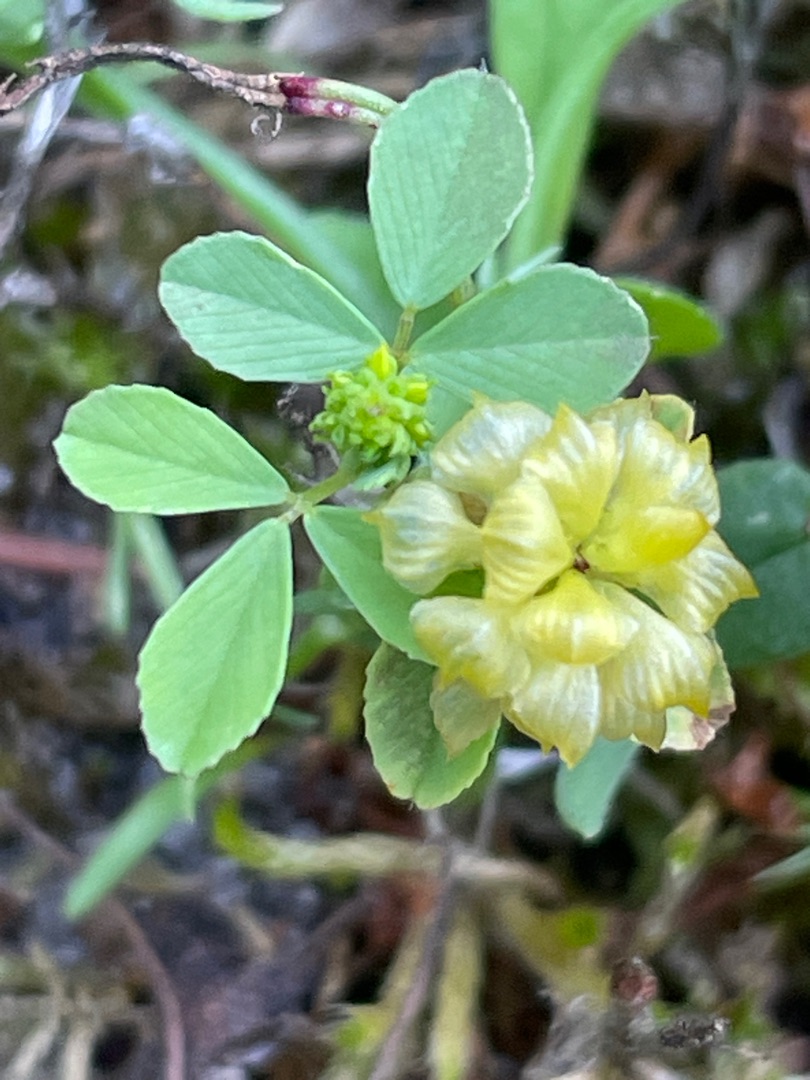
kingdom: Plantae
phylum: Tracheophyta
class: Magnoliopsida
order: Fabales
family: Fabaceae
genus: Trifolium
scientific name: Trifolium campestre
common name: Gul kløver
